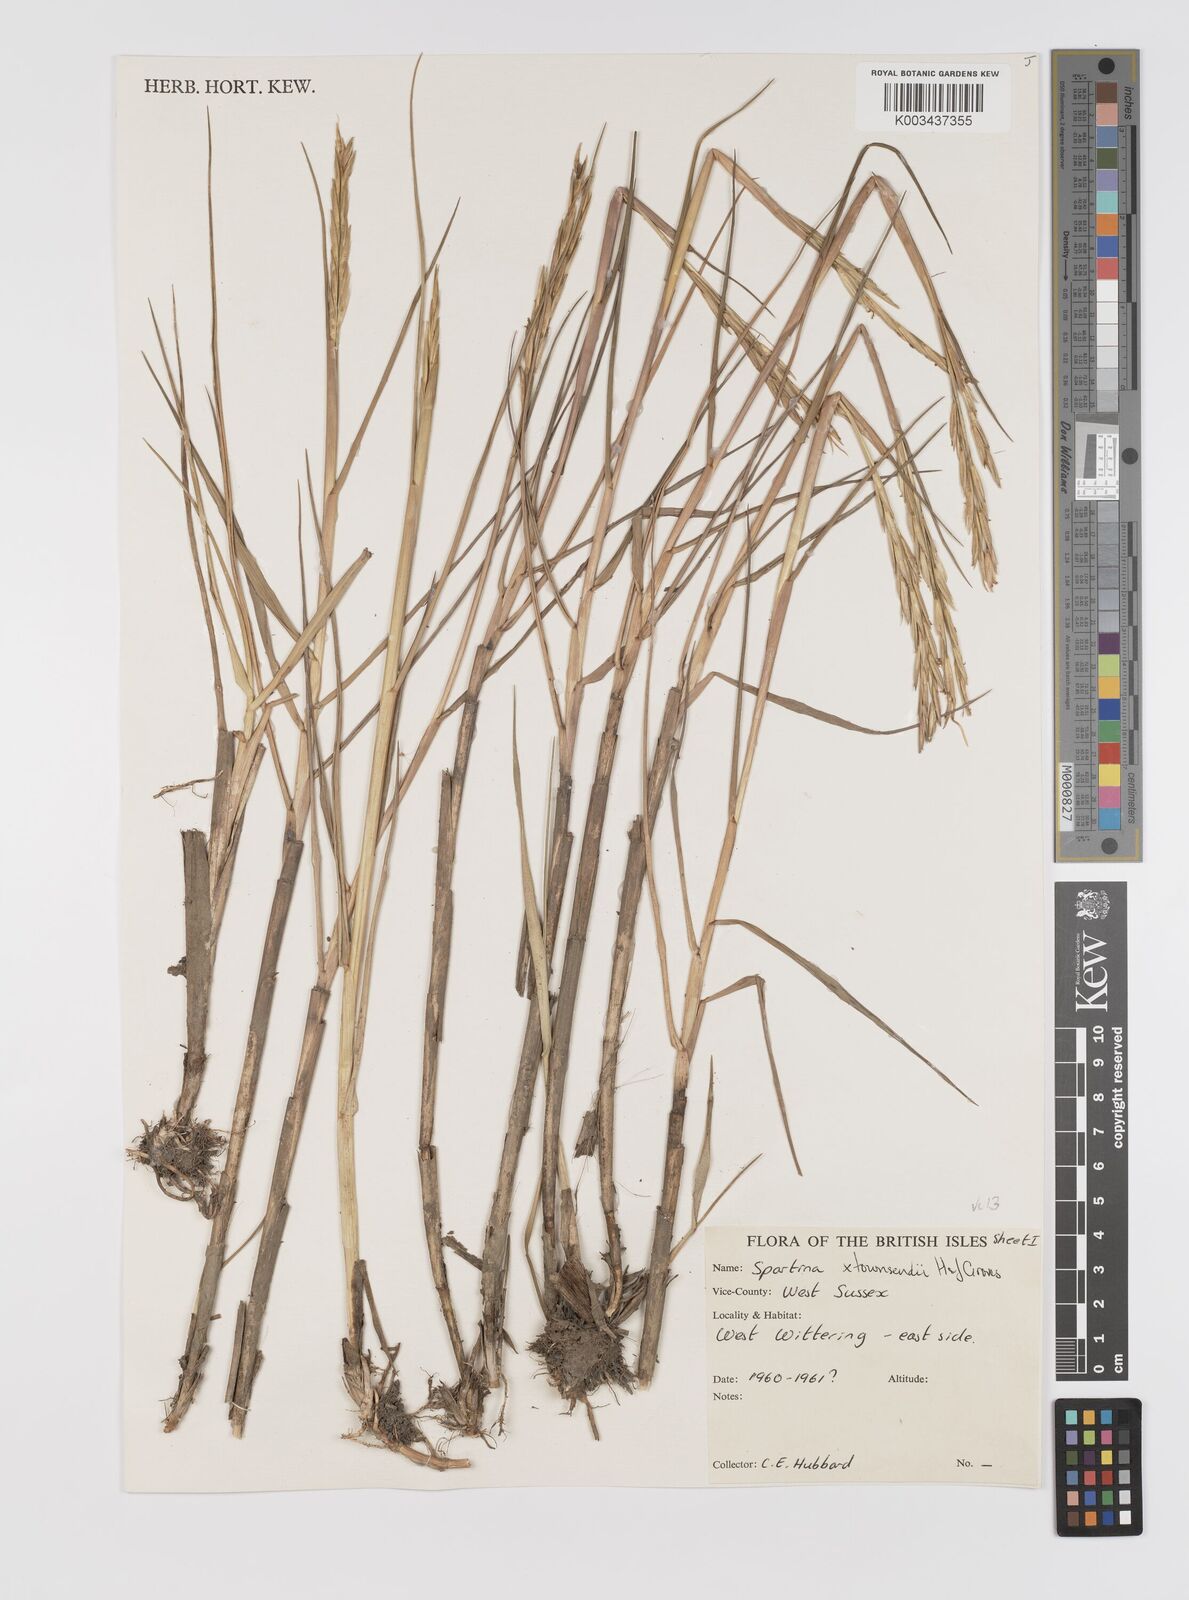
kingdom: Plantae
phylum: Tracheophyta
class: Liliopsida
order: Poales
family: Poaceae
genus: Sporobolus
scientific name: Sporobolus townsendii
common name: Townsend's cordgrass
